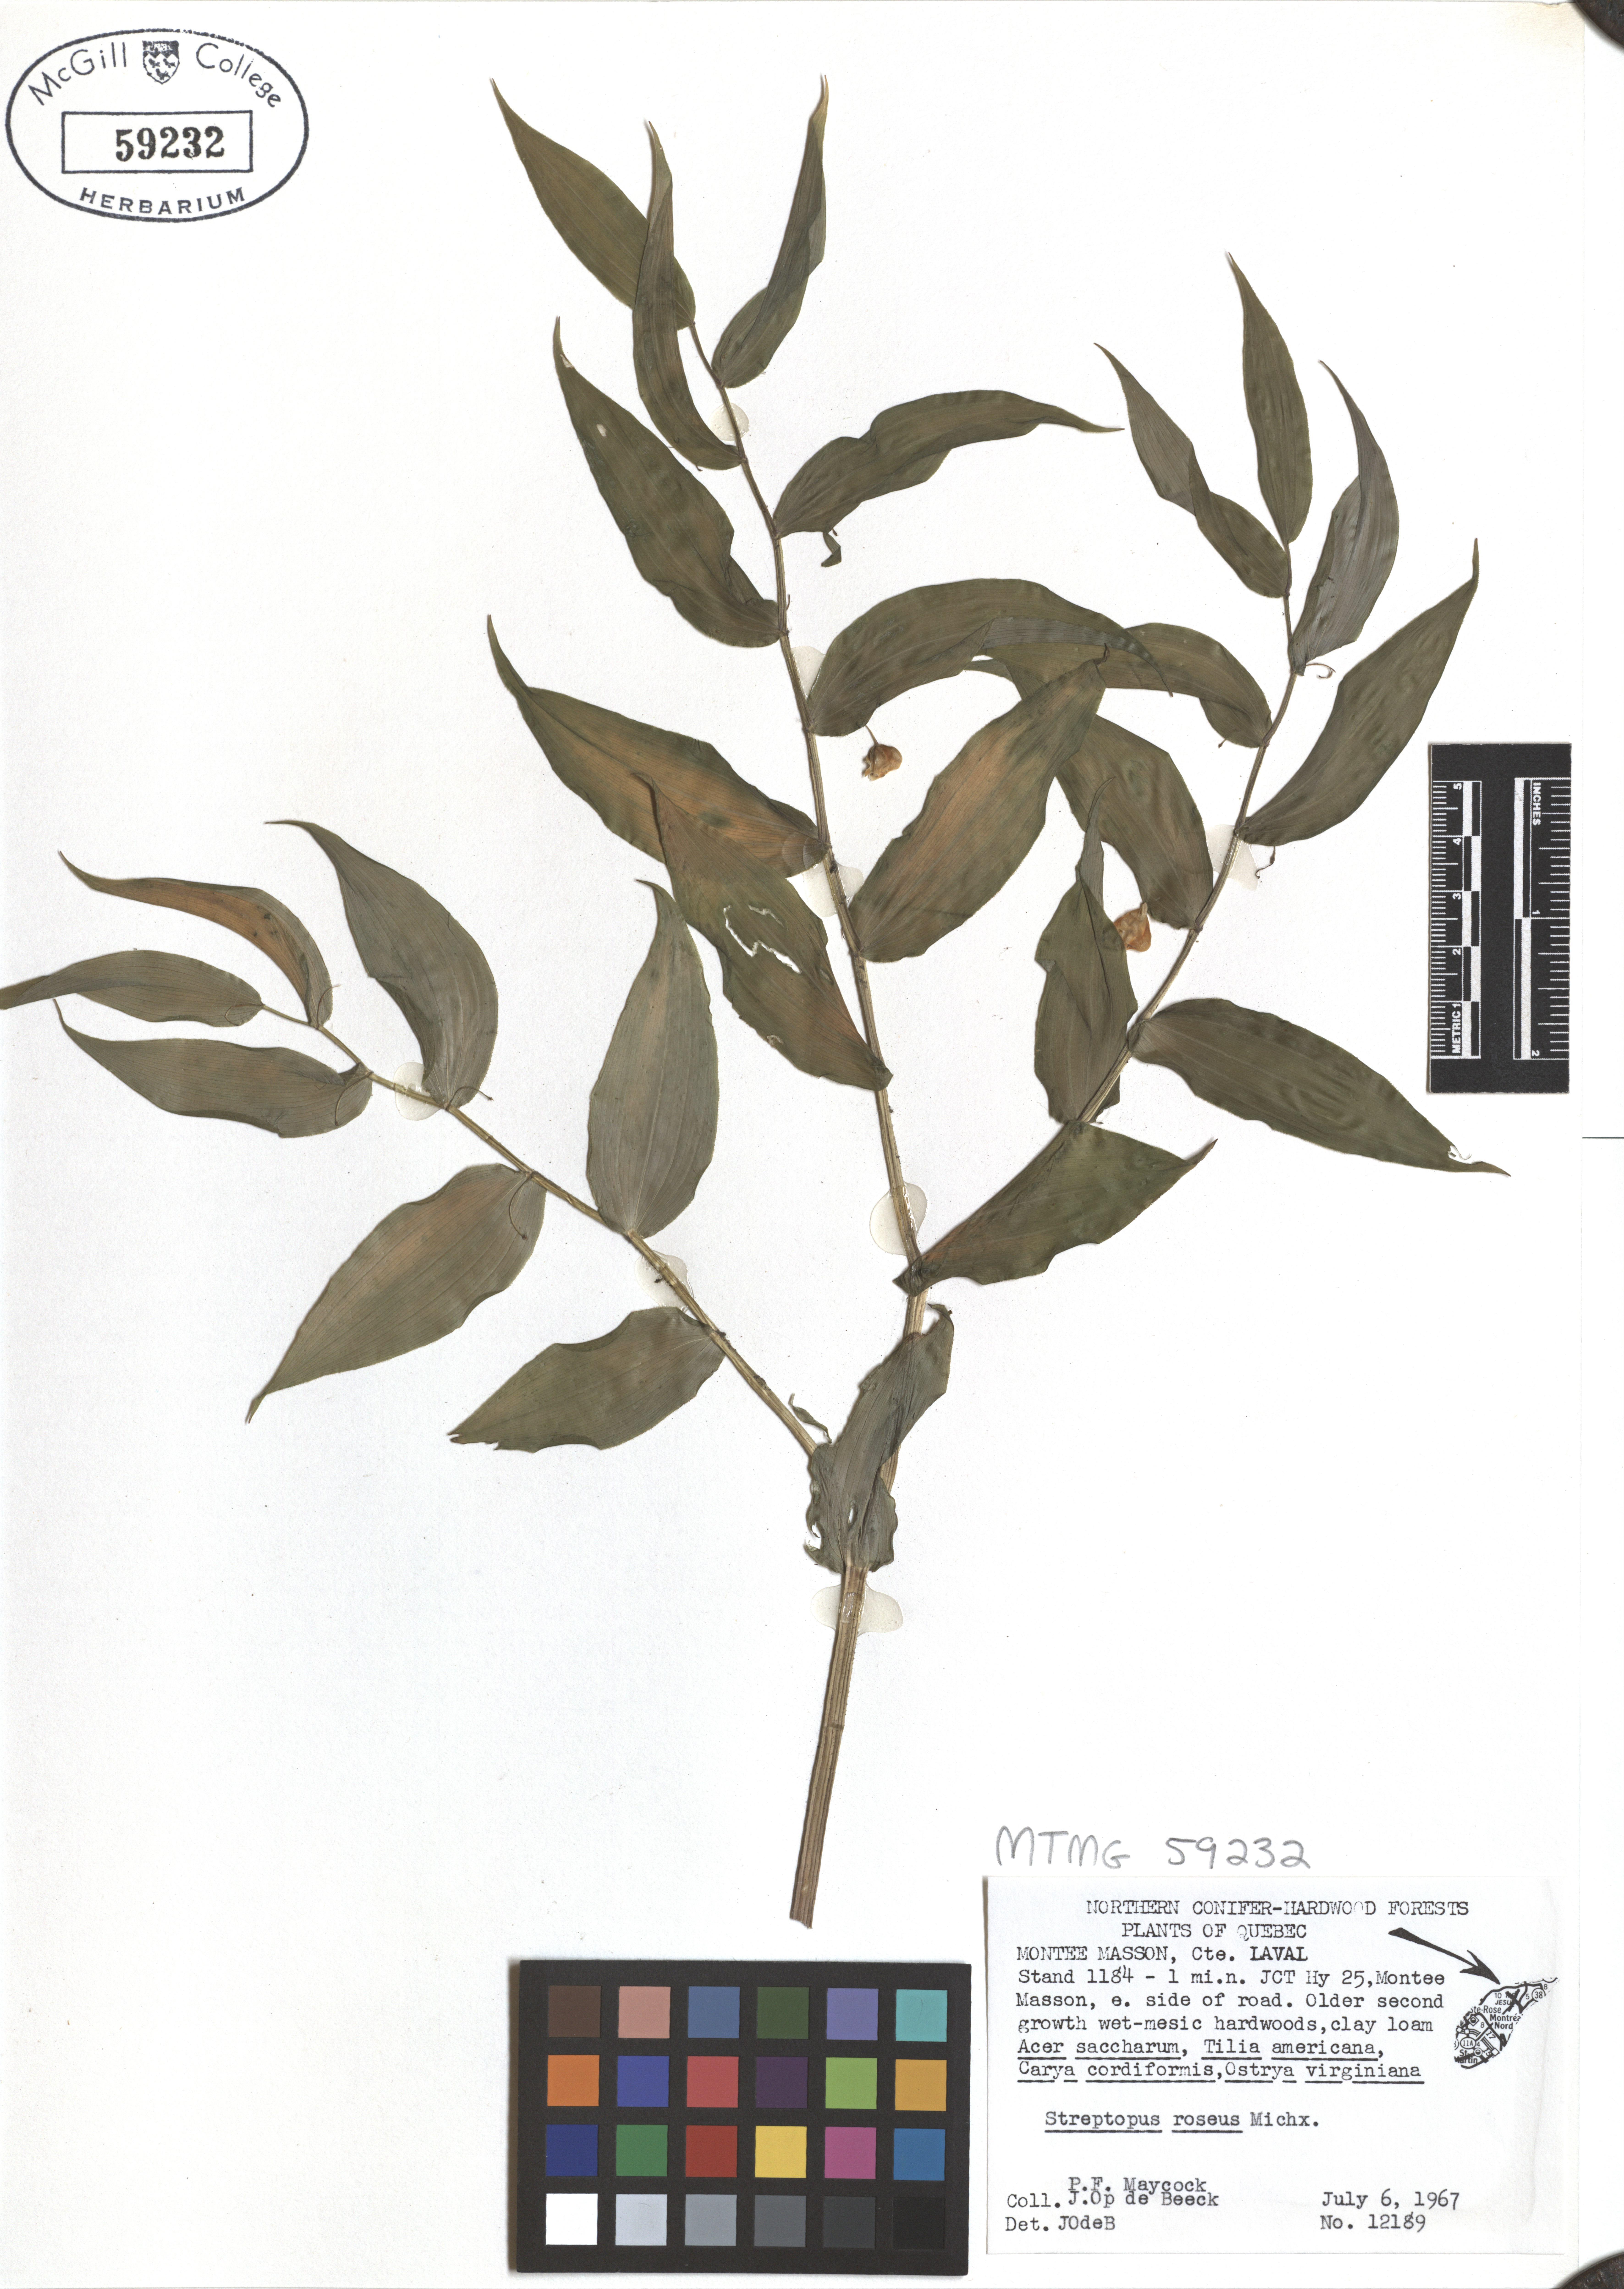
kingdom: Plantae
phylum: Tracheophyta
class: Liliopsida
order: Liliales
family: Liliaceae
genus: Streptopus
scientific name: Streptopus lanceolatus
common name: Rose mandarin
